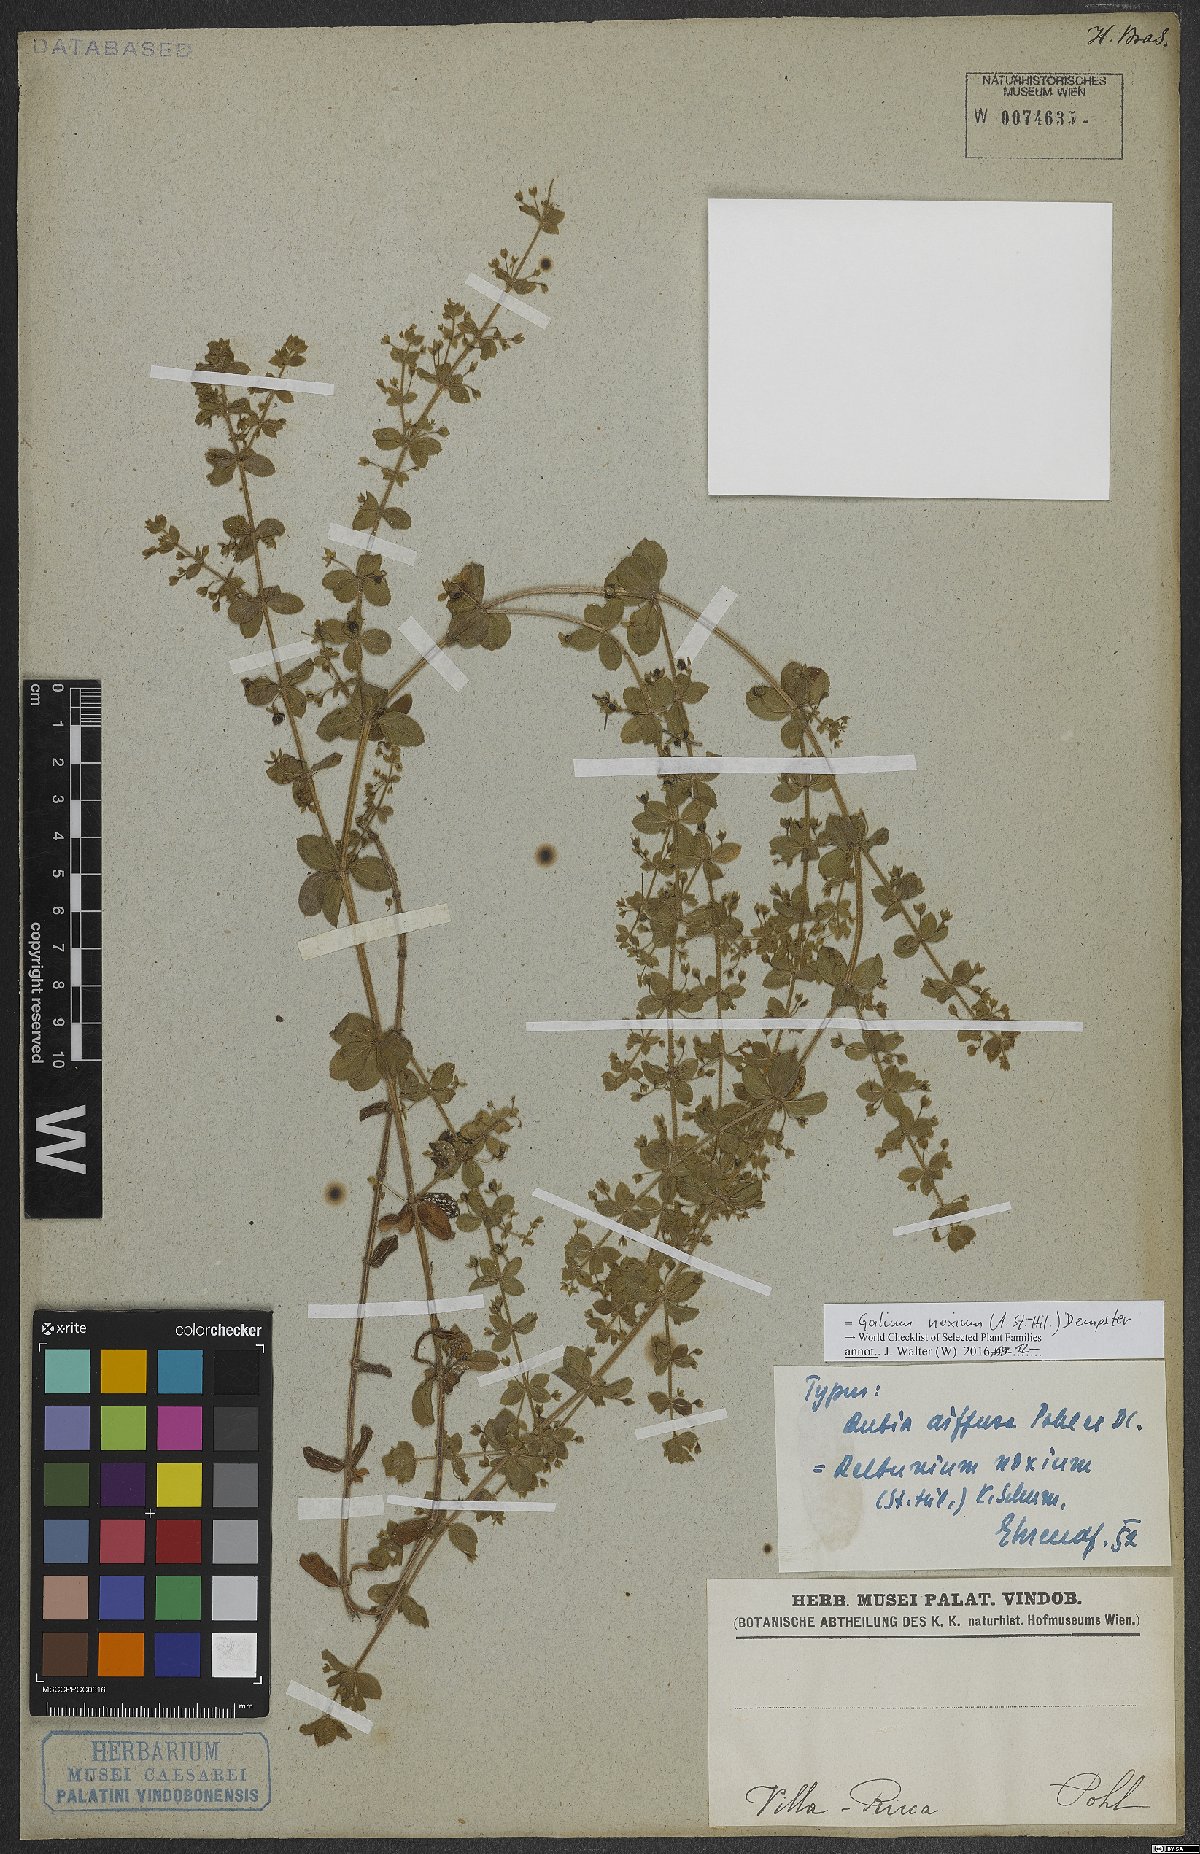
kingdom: Plantae
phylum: Tracheophyta
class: Magnoliopsida
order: Gentianales
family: Rubiaceae
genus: Galium
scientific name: Galium noxium
